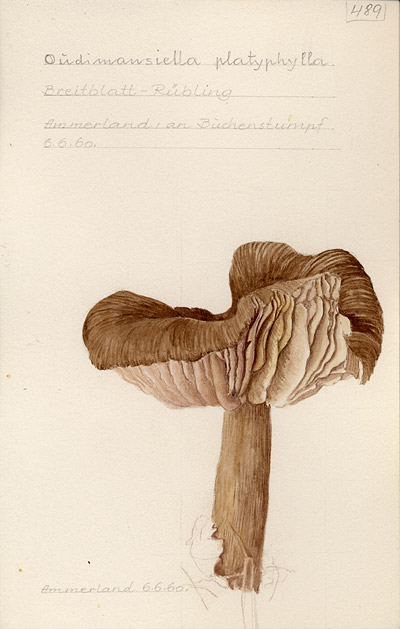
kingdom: Fungi
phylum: Basidiomycota
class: Agaricomycetes
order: Agaricales
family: Tricholomataceae
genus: Megacollybia
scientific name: Megacollybia platyphylla
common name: Whitelaced shank
